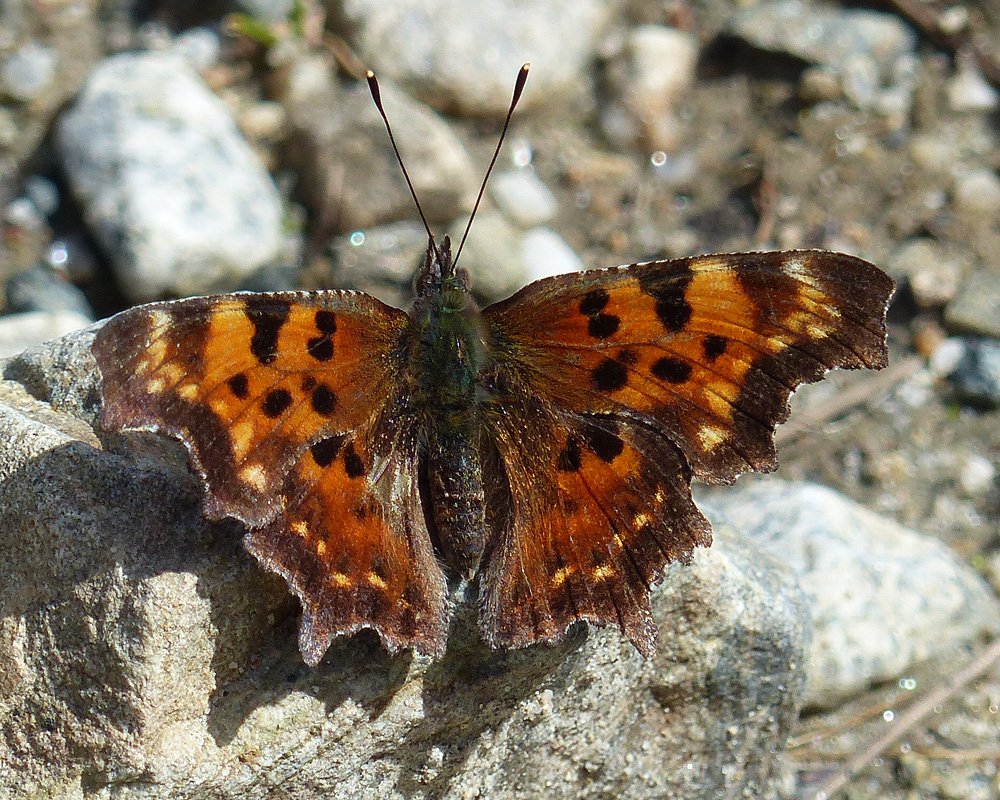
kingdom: Animalia
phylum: Arthropoda
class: Insecta
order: Lepidoptera
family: Nymphalidae
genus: Polygonia
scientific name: Polygonia faunus
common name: Green Comma
